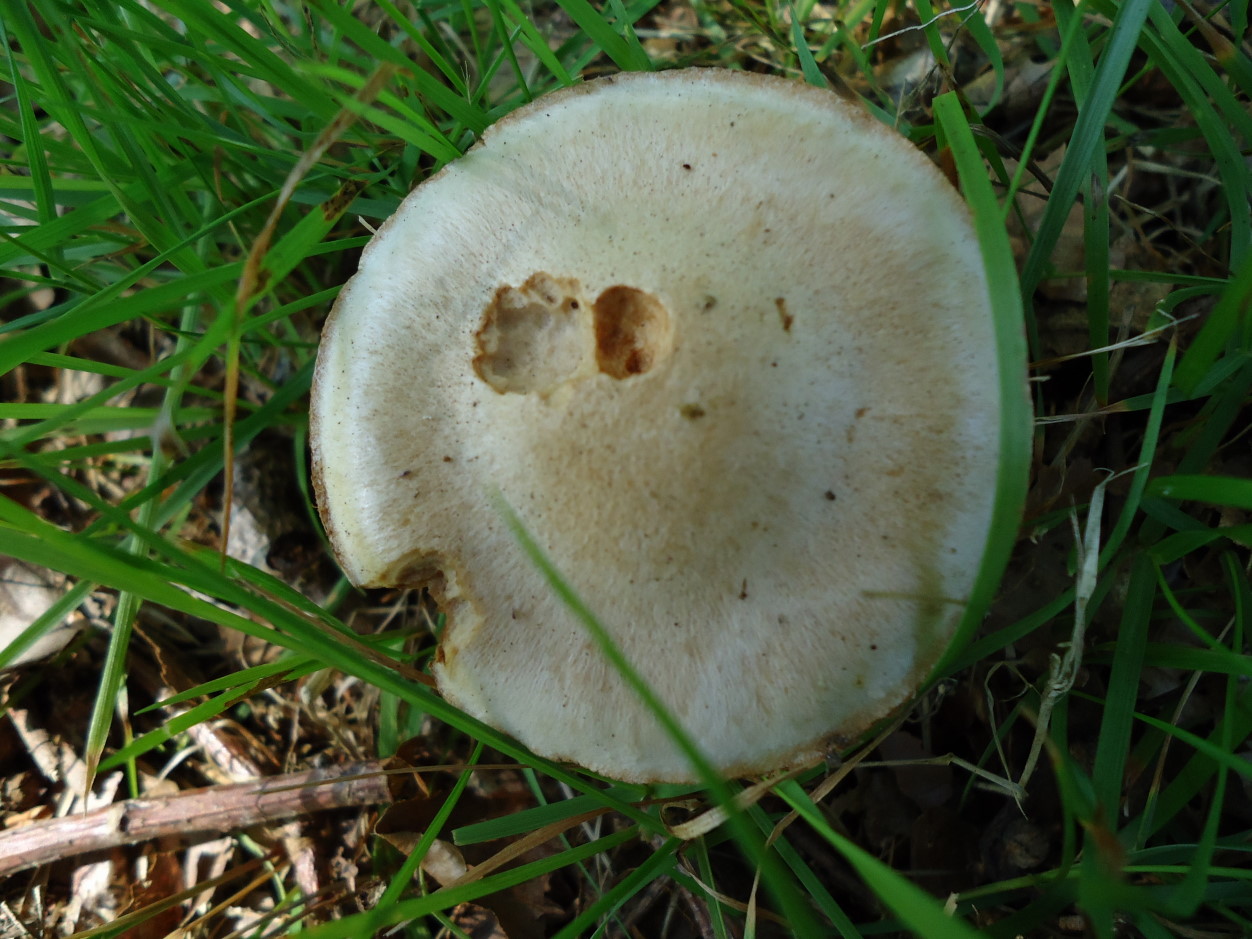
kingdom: Fungi
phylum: Basidiomycota
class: Agaricomycetes
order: Agaricales
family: Cortinariaceae
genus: Cortinarius
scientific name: Cortinarius
